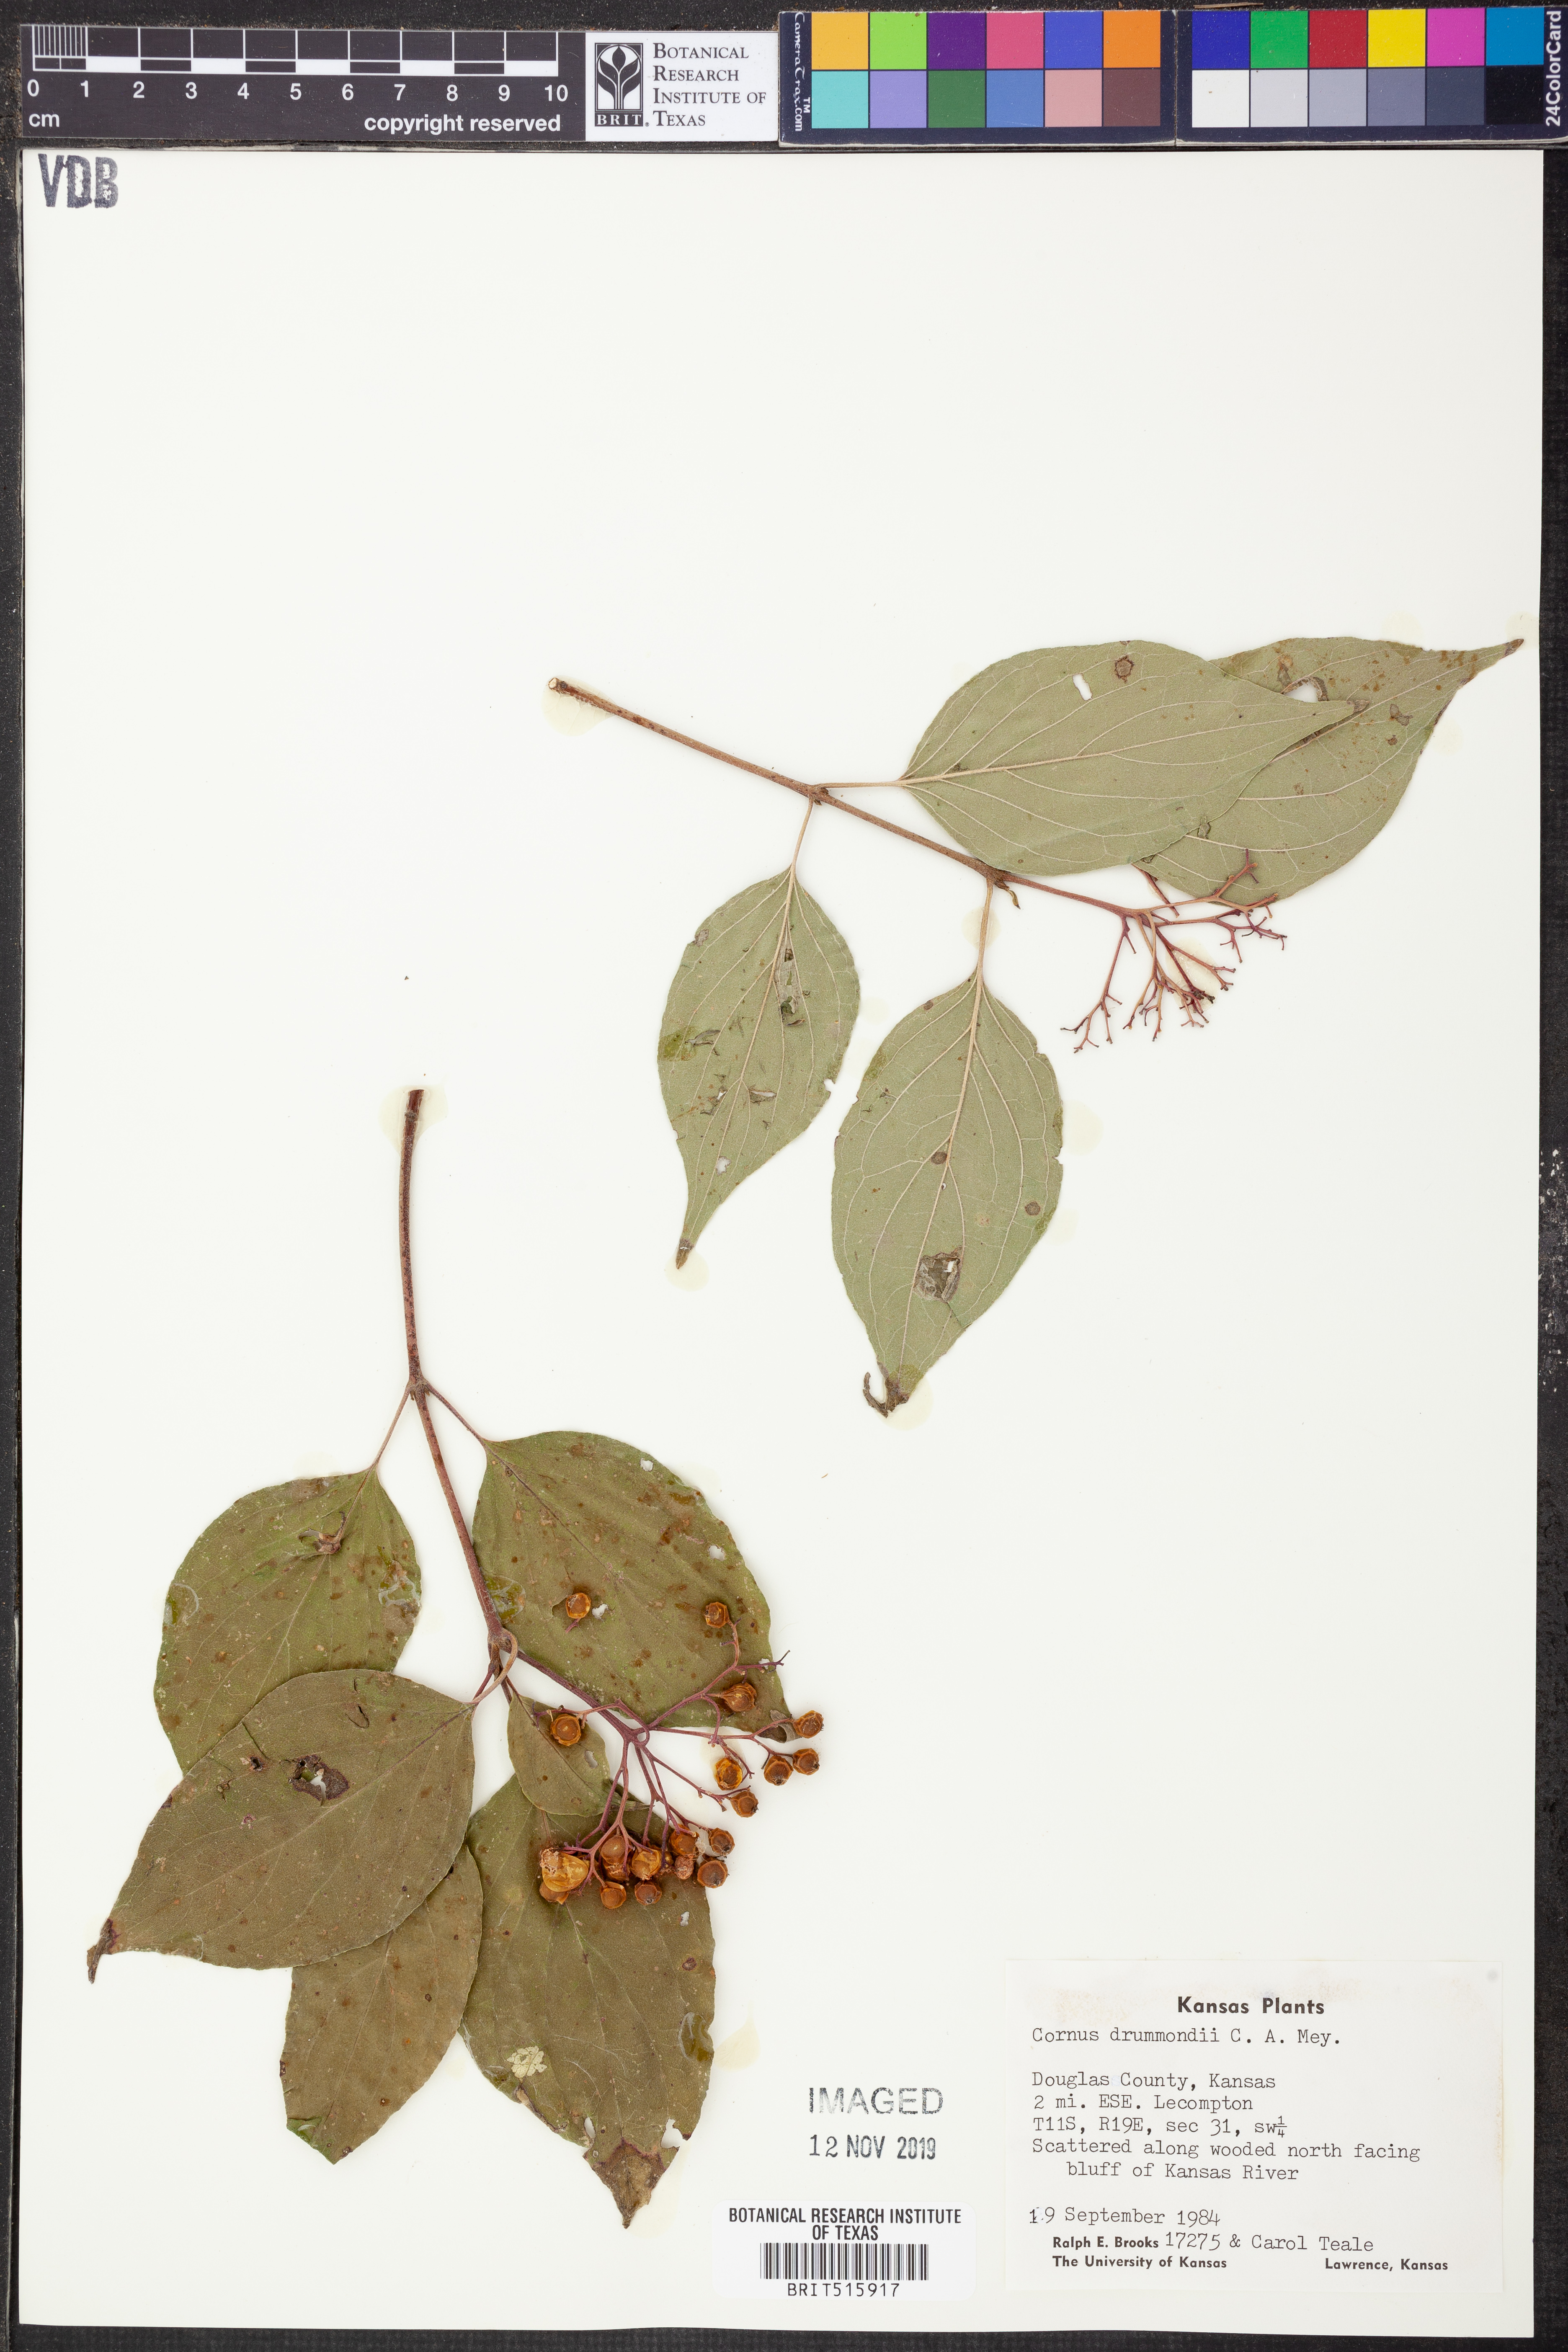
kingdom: Plantae
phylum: Tracheophyta
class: Magnoliopsida
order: Cornales
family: Cornaceae
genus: Cornus
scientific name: Cornus drummondii
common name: Rough-leaf dogwood
